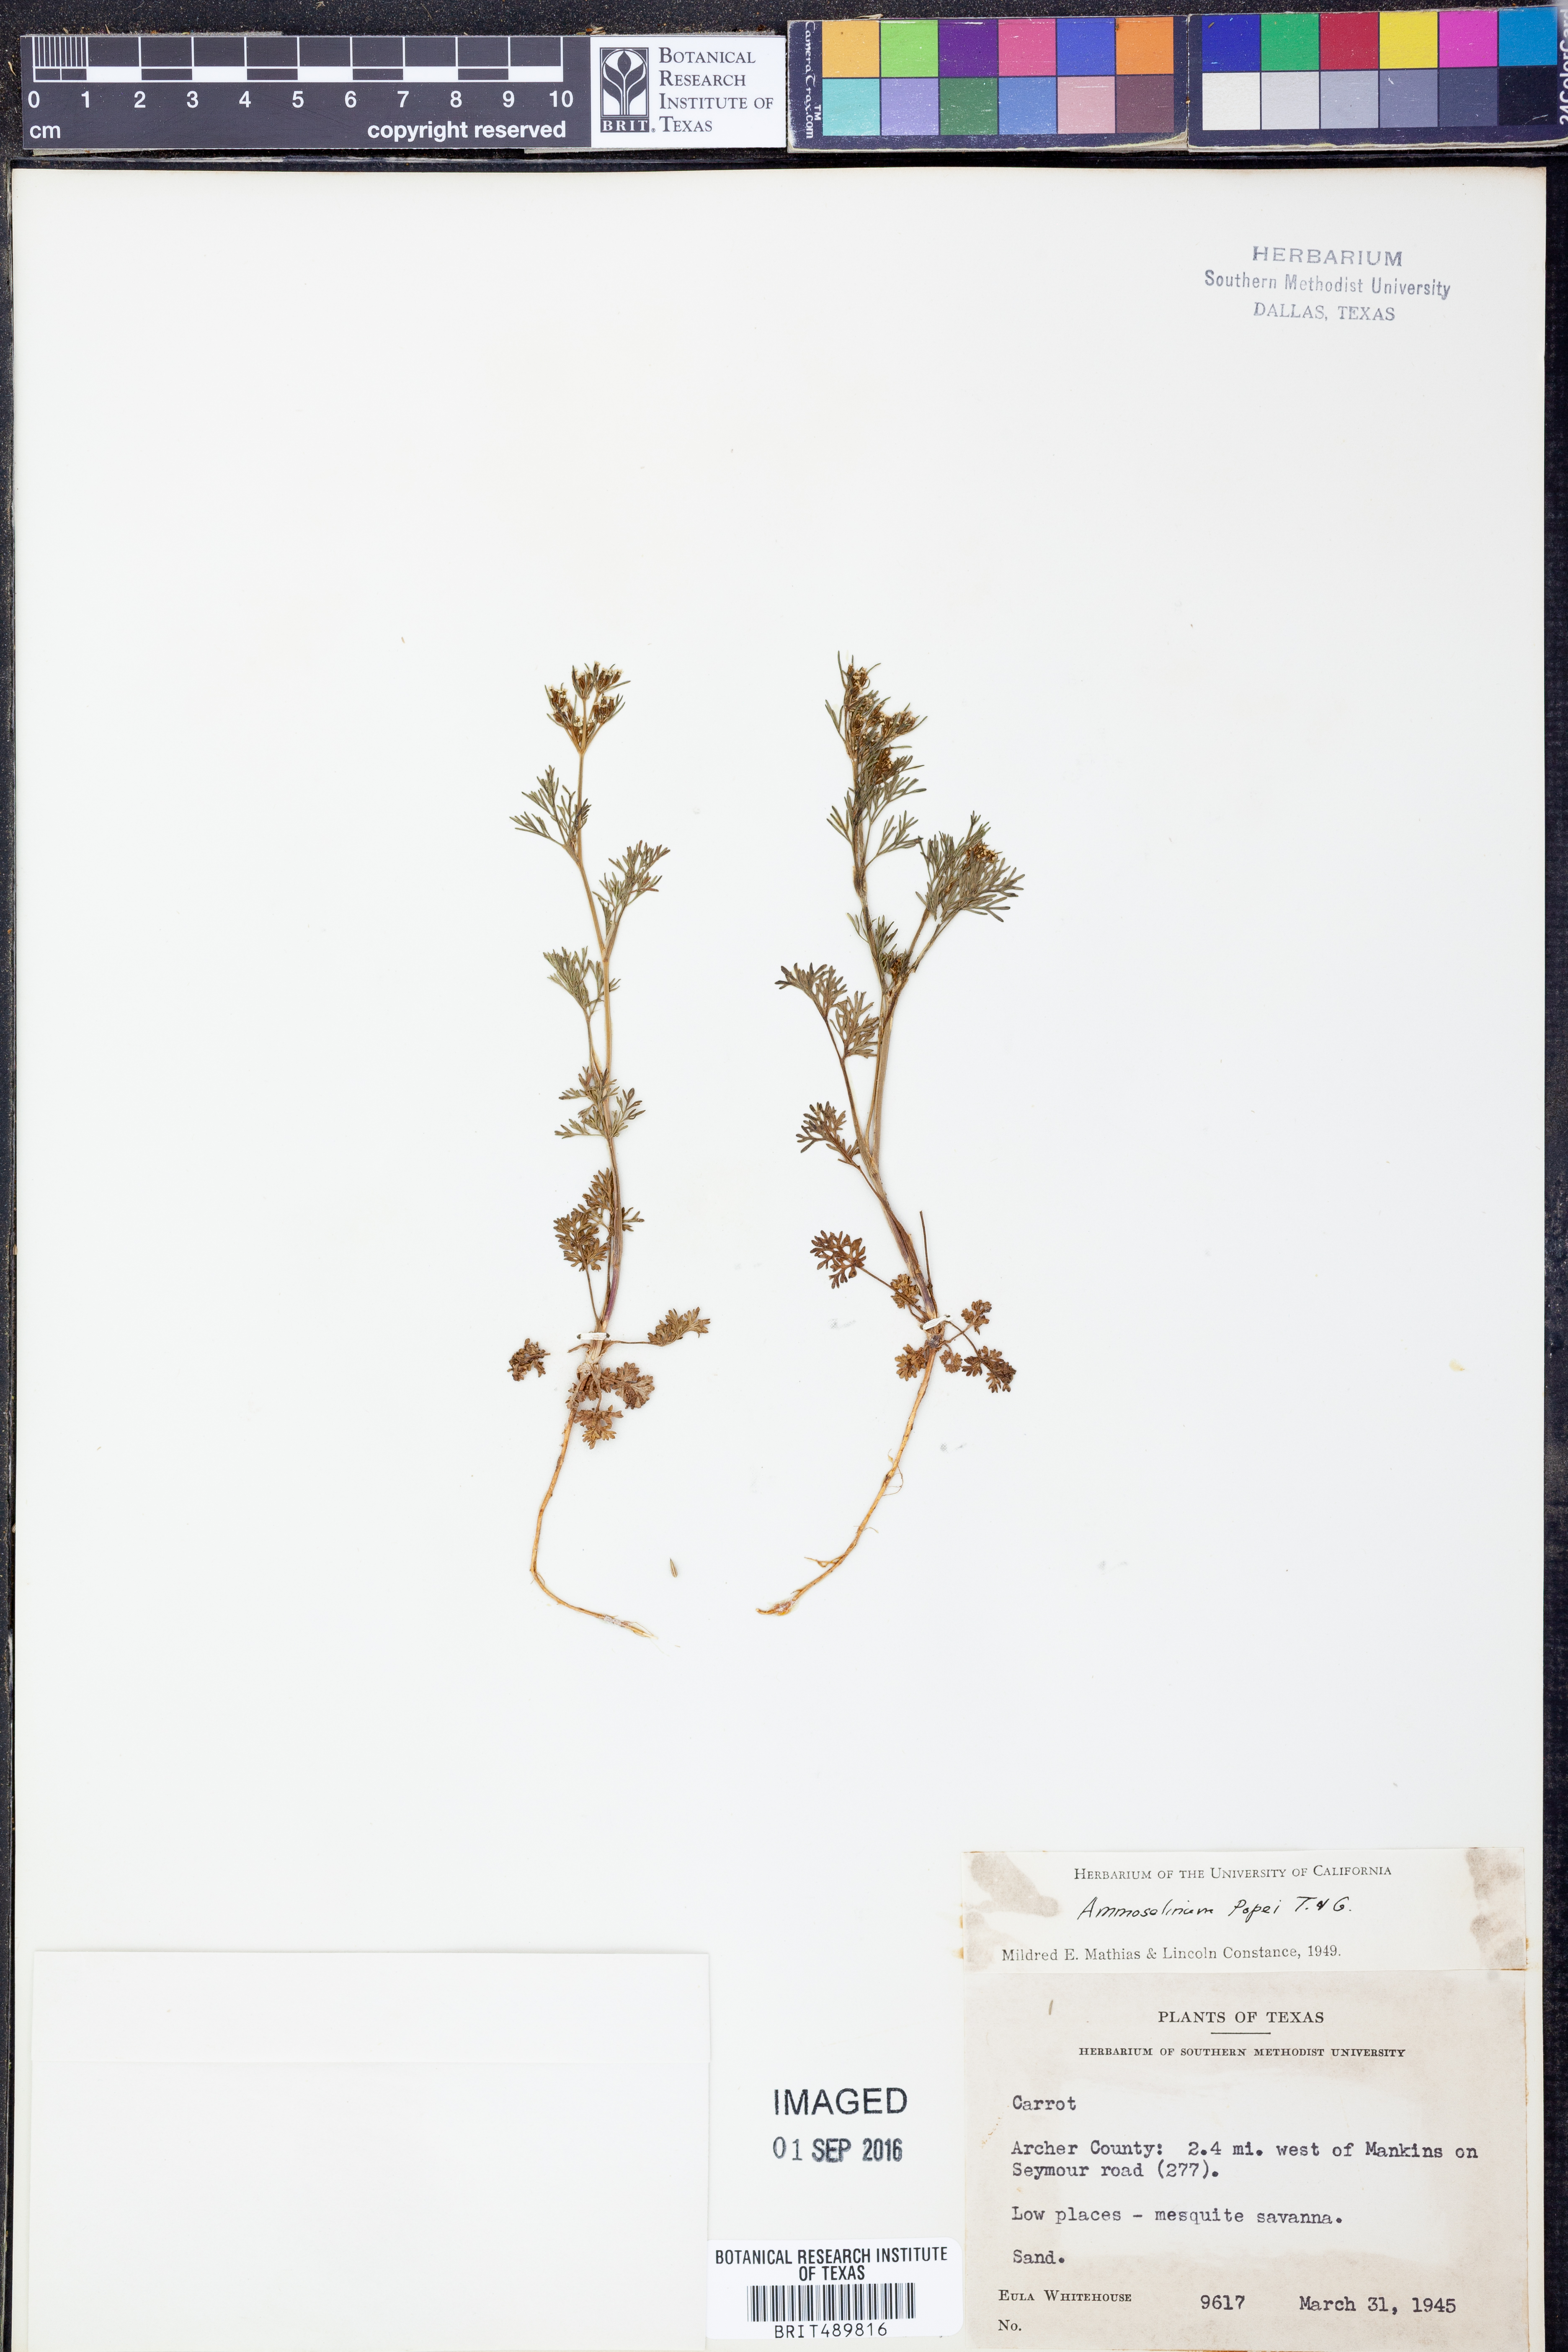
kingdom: Plantae
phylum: Tracheophyta
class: Magnoliopsida
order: Apiales
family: Apiaceae
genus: Ammoselinum
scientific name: Ammoselinum popei
